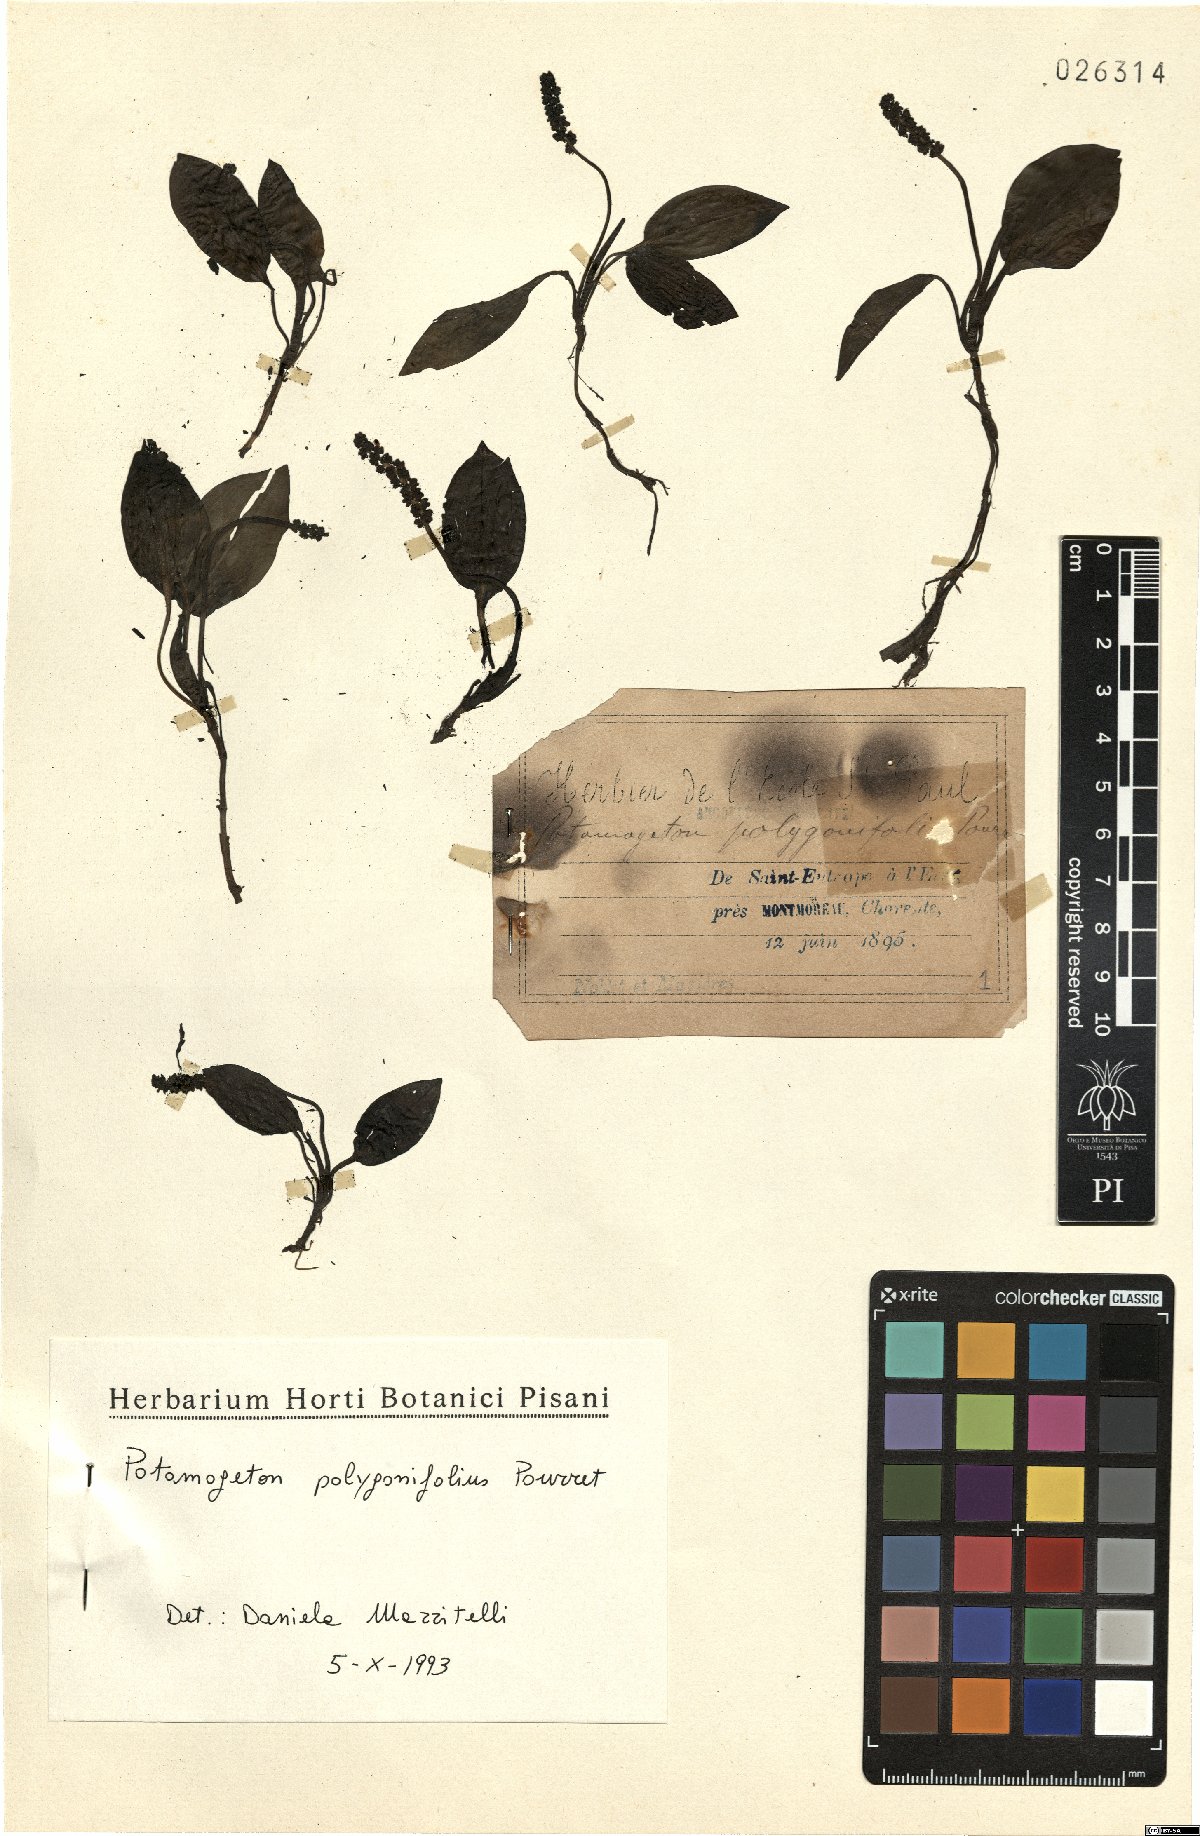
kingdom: Plantae
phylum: Tracheophyta
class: Liliopsida
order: Alismatales
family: Potamogetonaceae
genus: Potamogeton
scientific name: Potamogeton polygonifolius
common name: Bog pondweed
